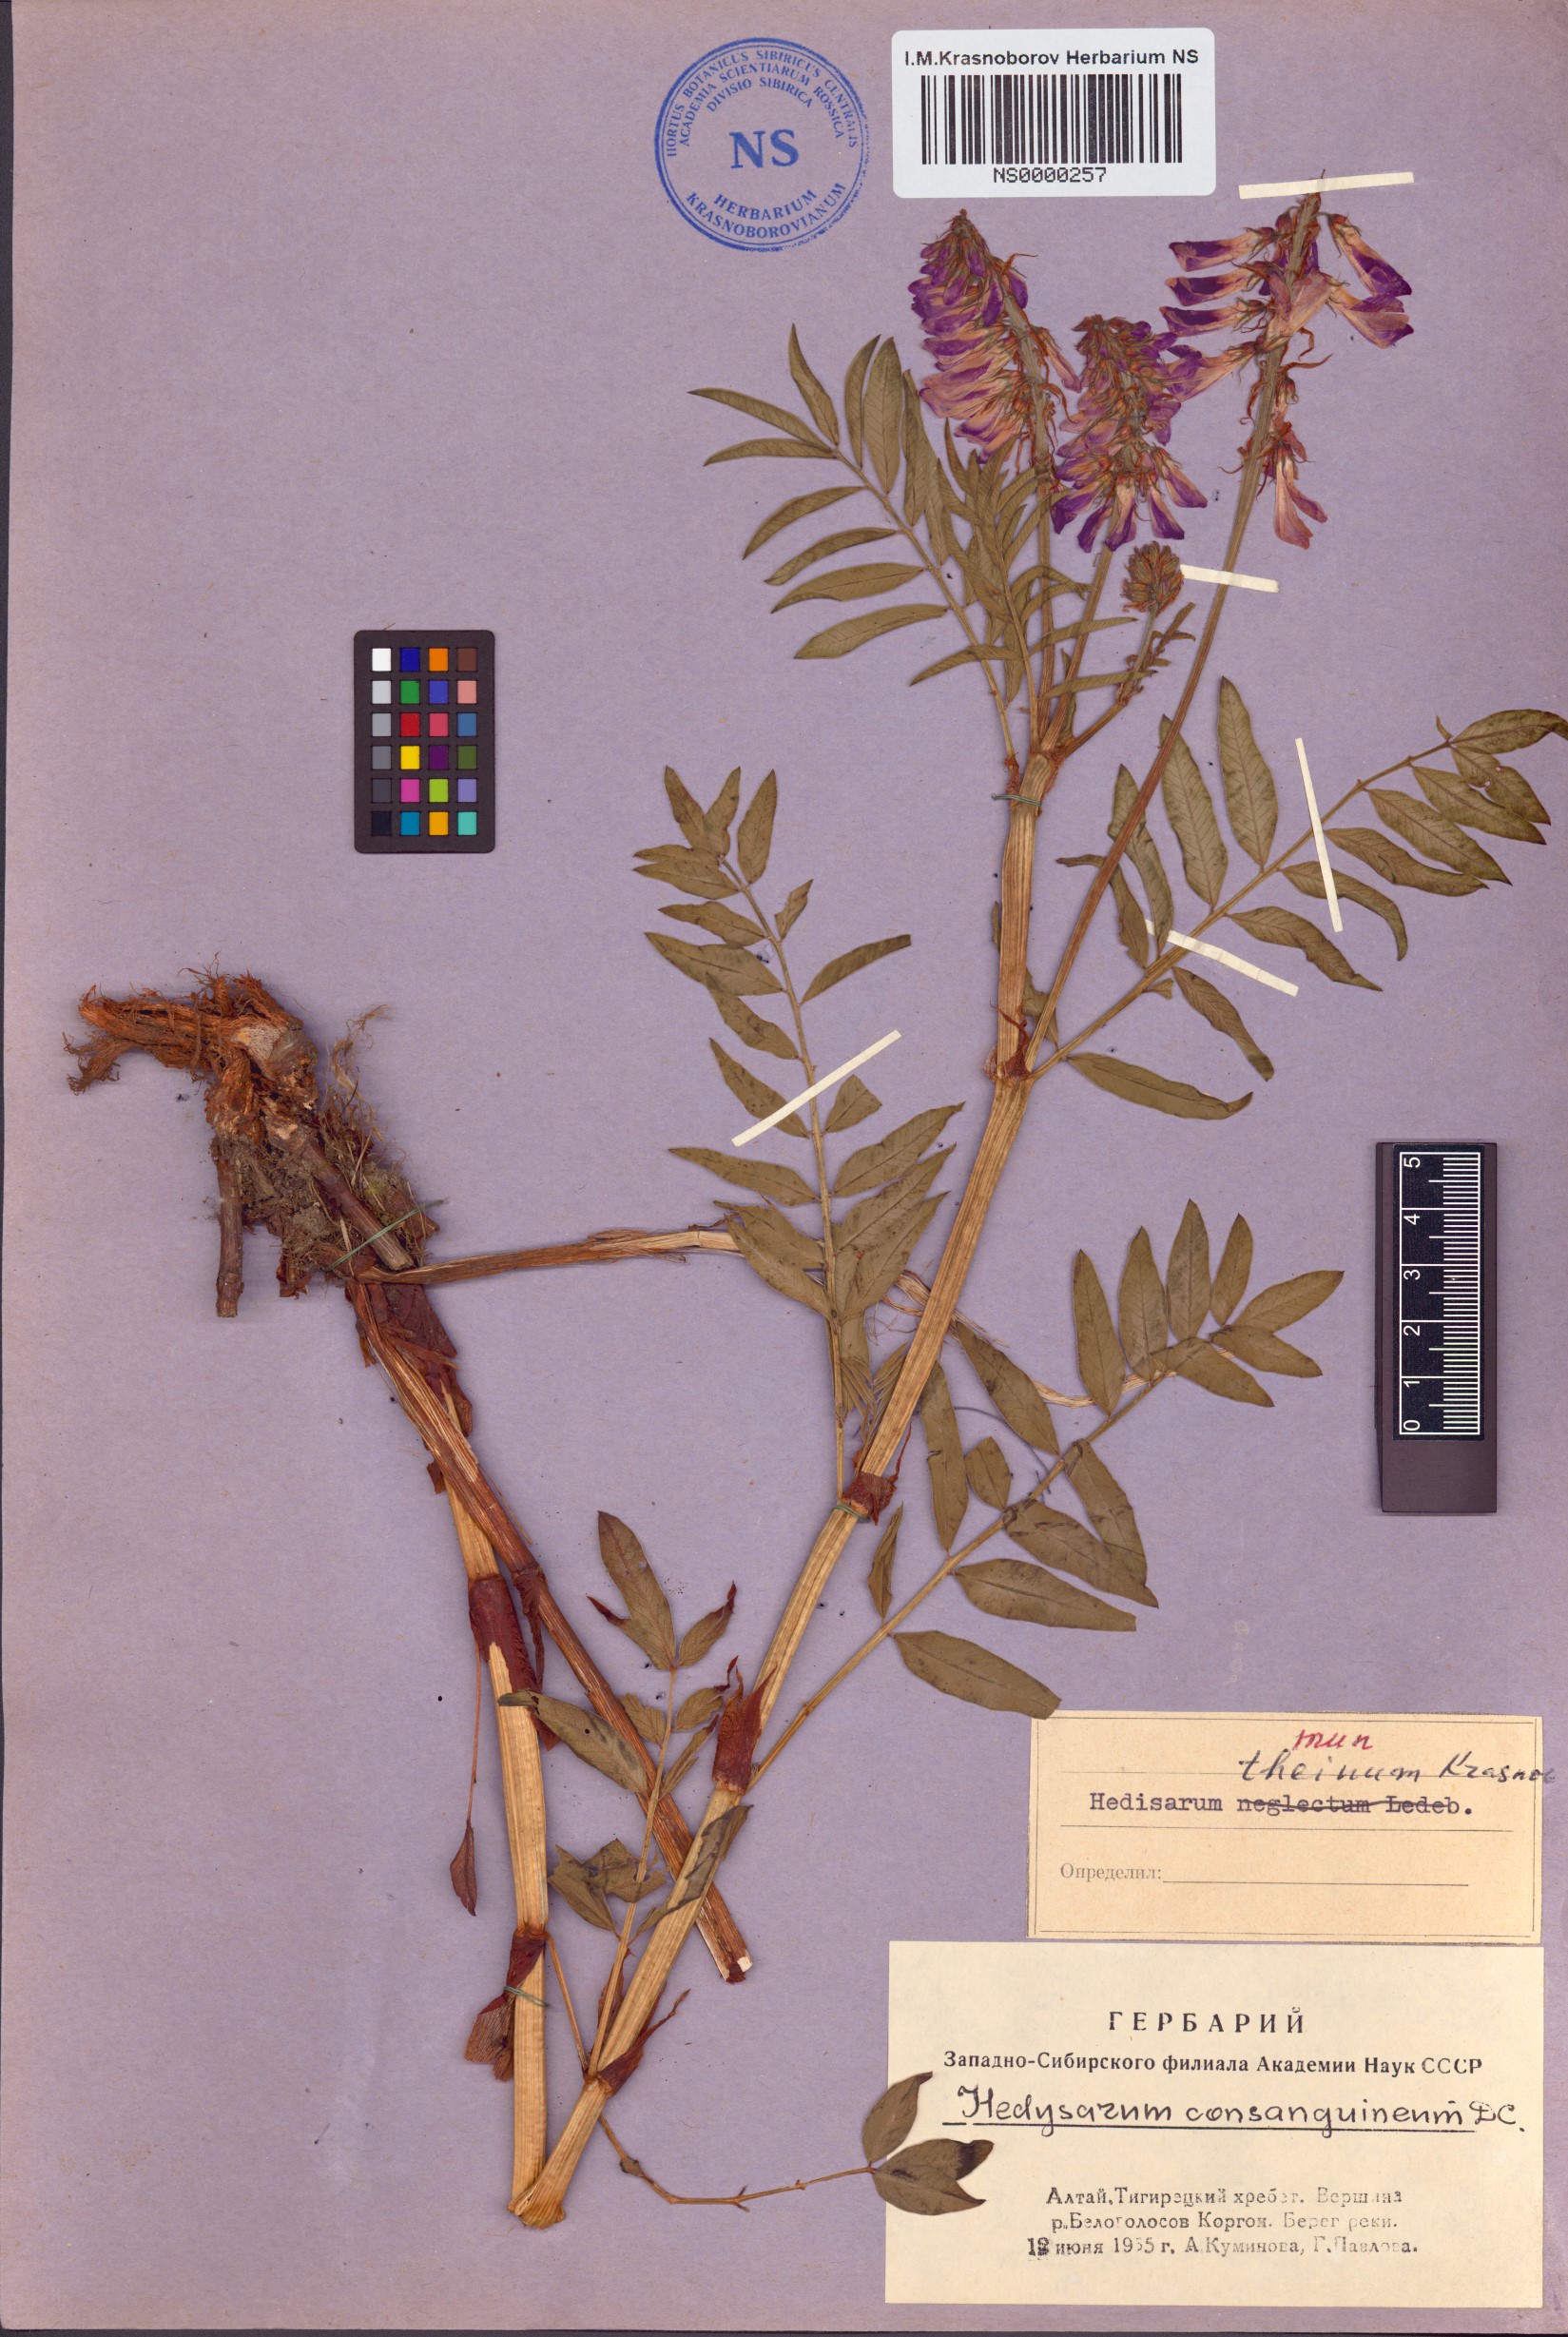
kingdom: Plantae
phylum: Tracheophyta
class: Magnoliopsida
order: Fabales
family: Fabaceae
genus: Hedysarum
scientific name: Hedysarum theinum
